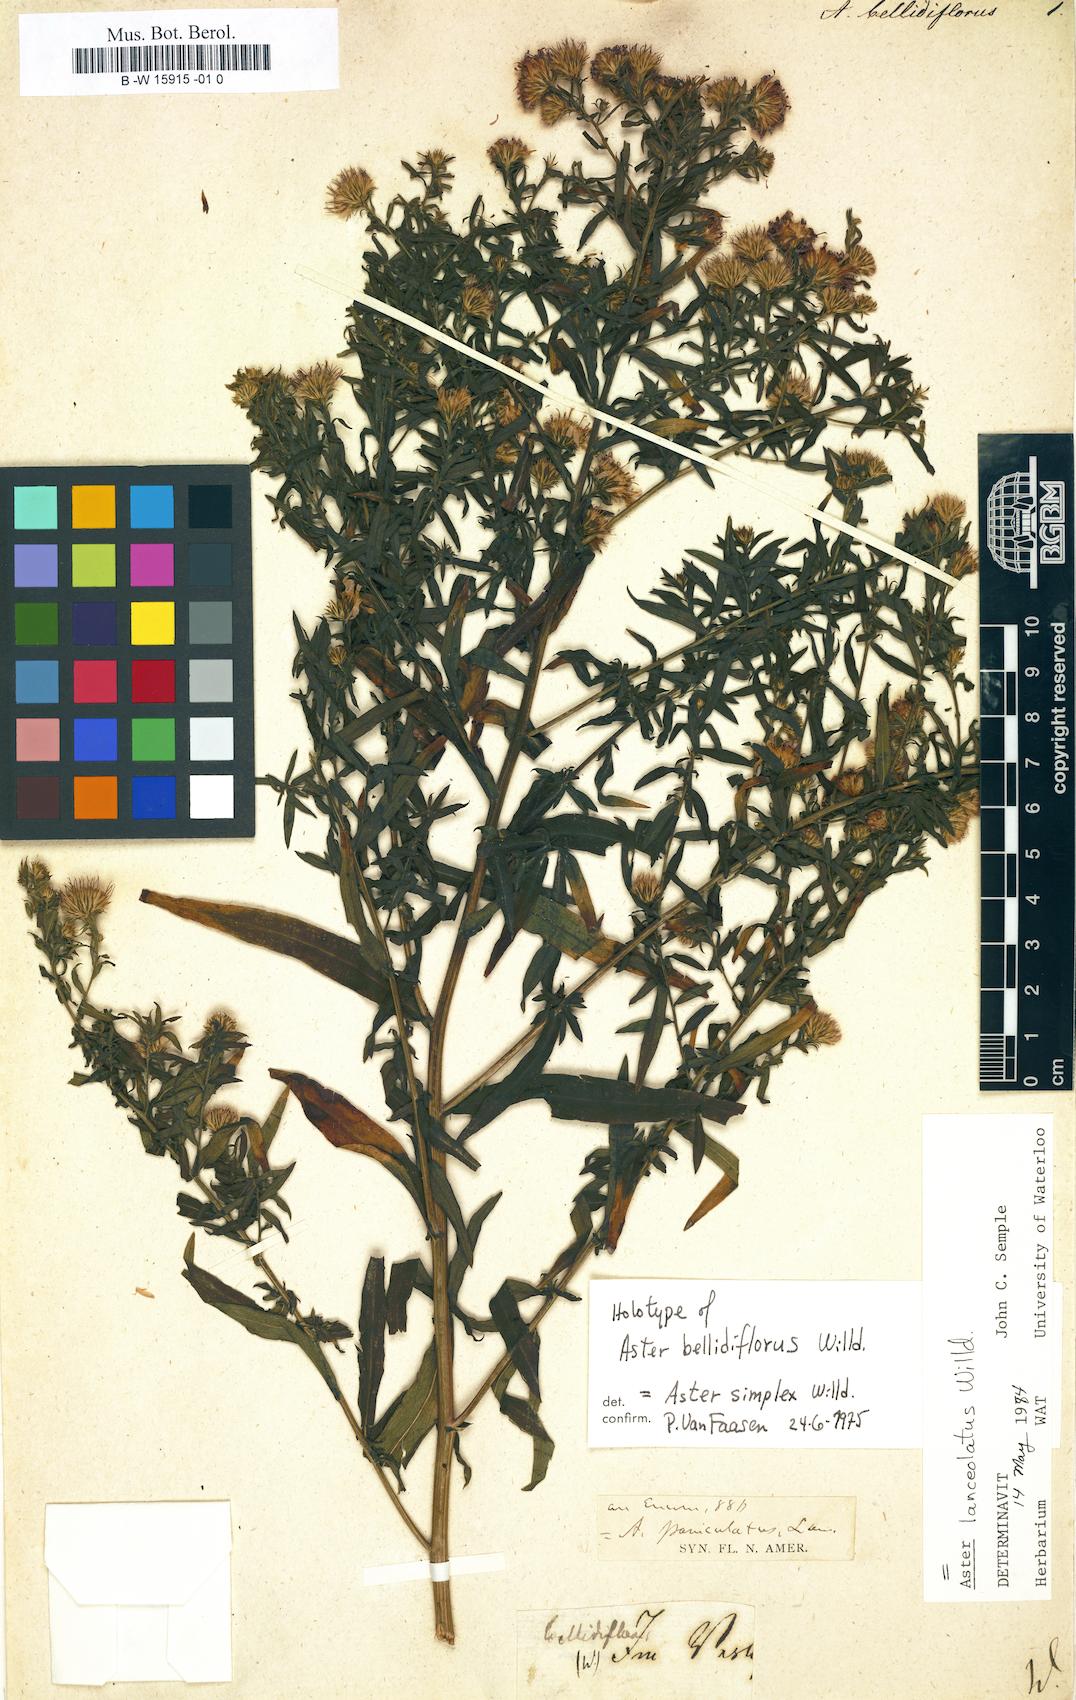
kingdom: Plantae
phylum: Tracheophyta
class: Magnoliopsida
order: Asterales
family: Asteraceae
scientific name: Asteraceae
